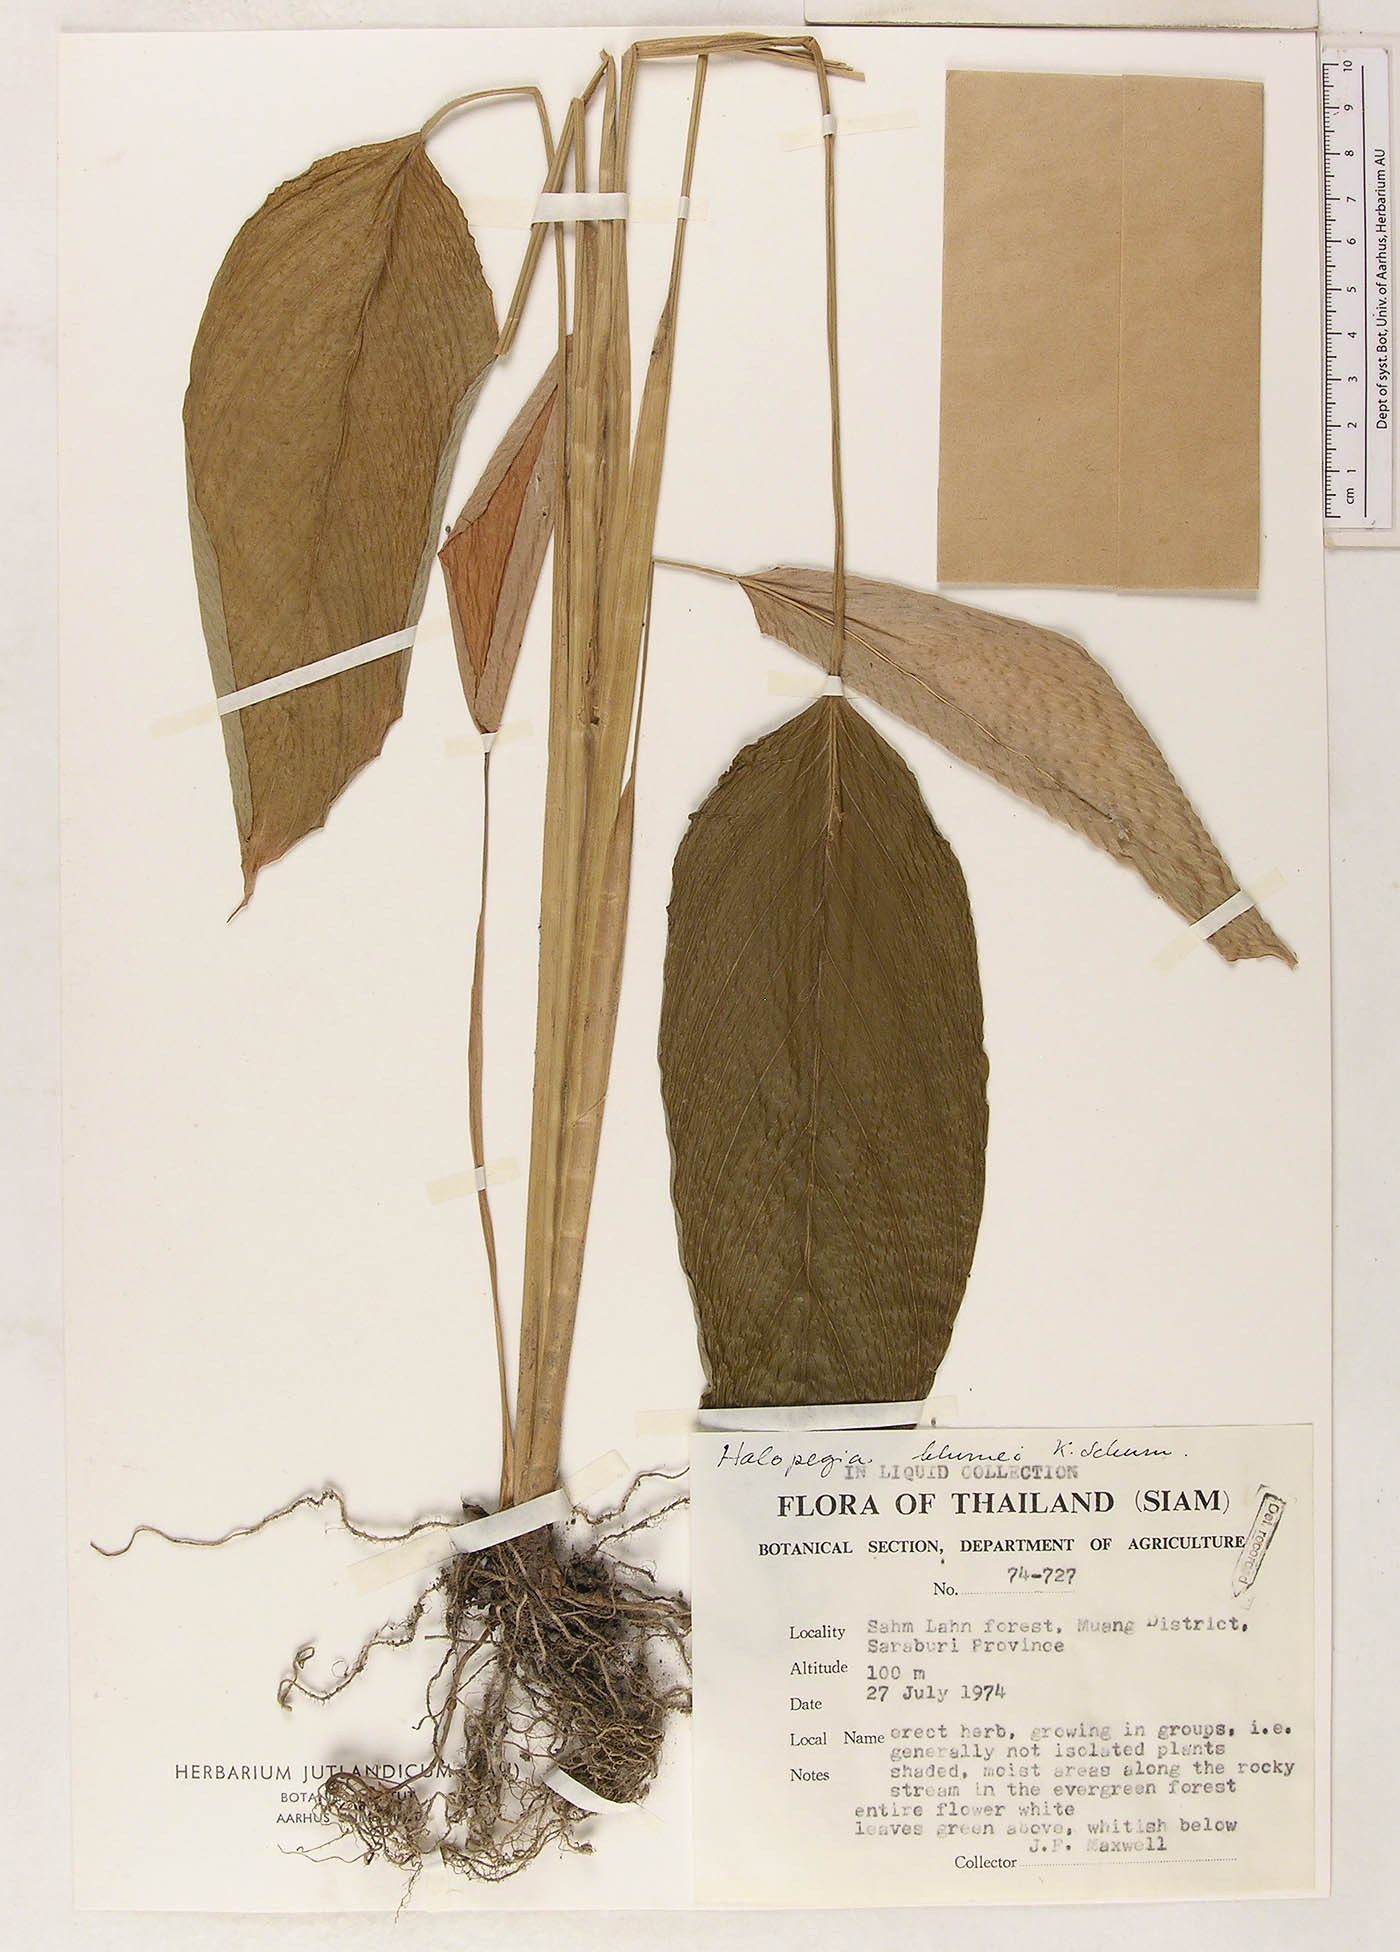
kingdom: Plantae
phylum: Tracheophyta
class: Liliopsida
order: Zingiberales
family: Marantaceae
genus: Halopegia
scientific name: Halopegia blumei
